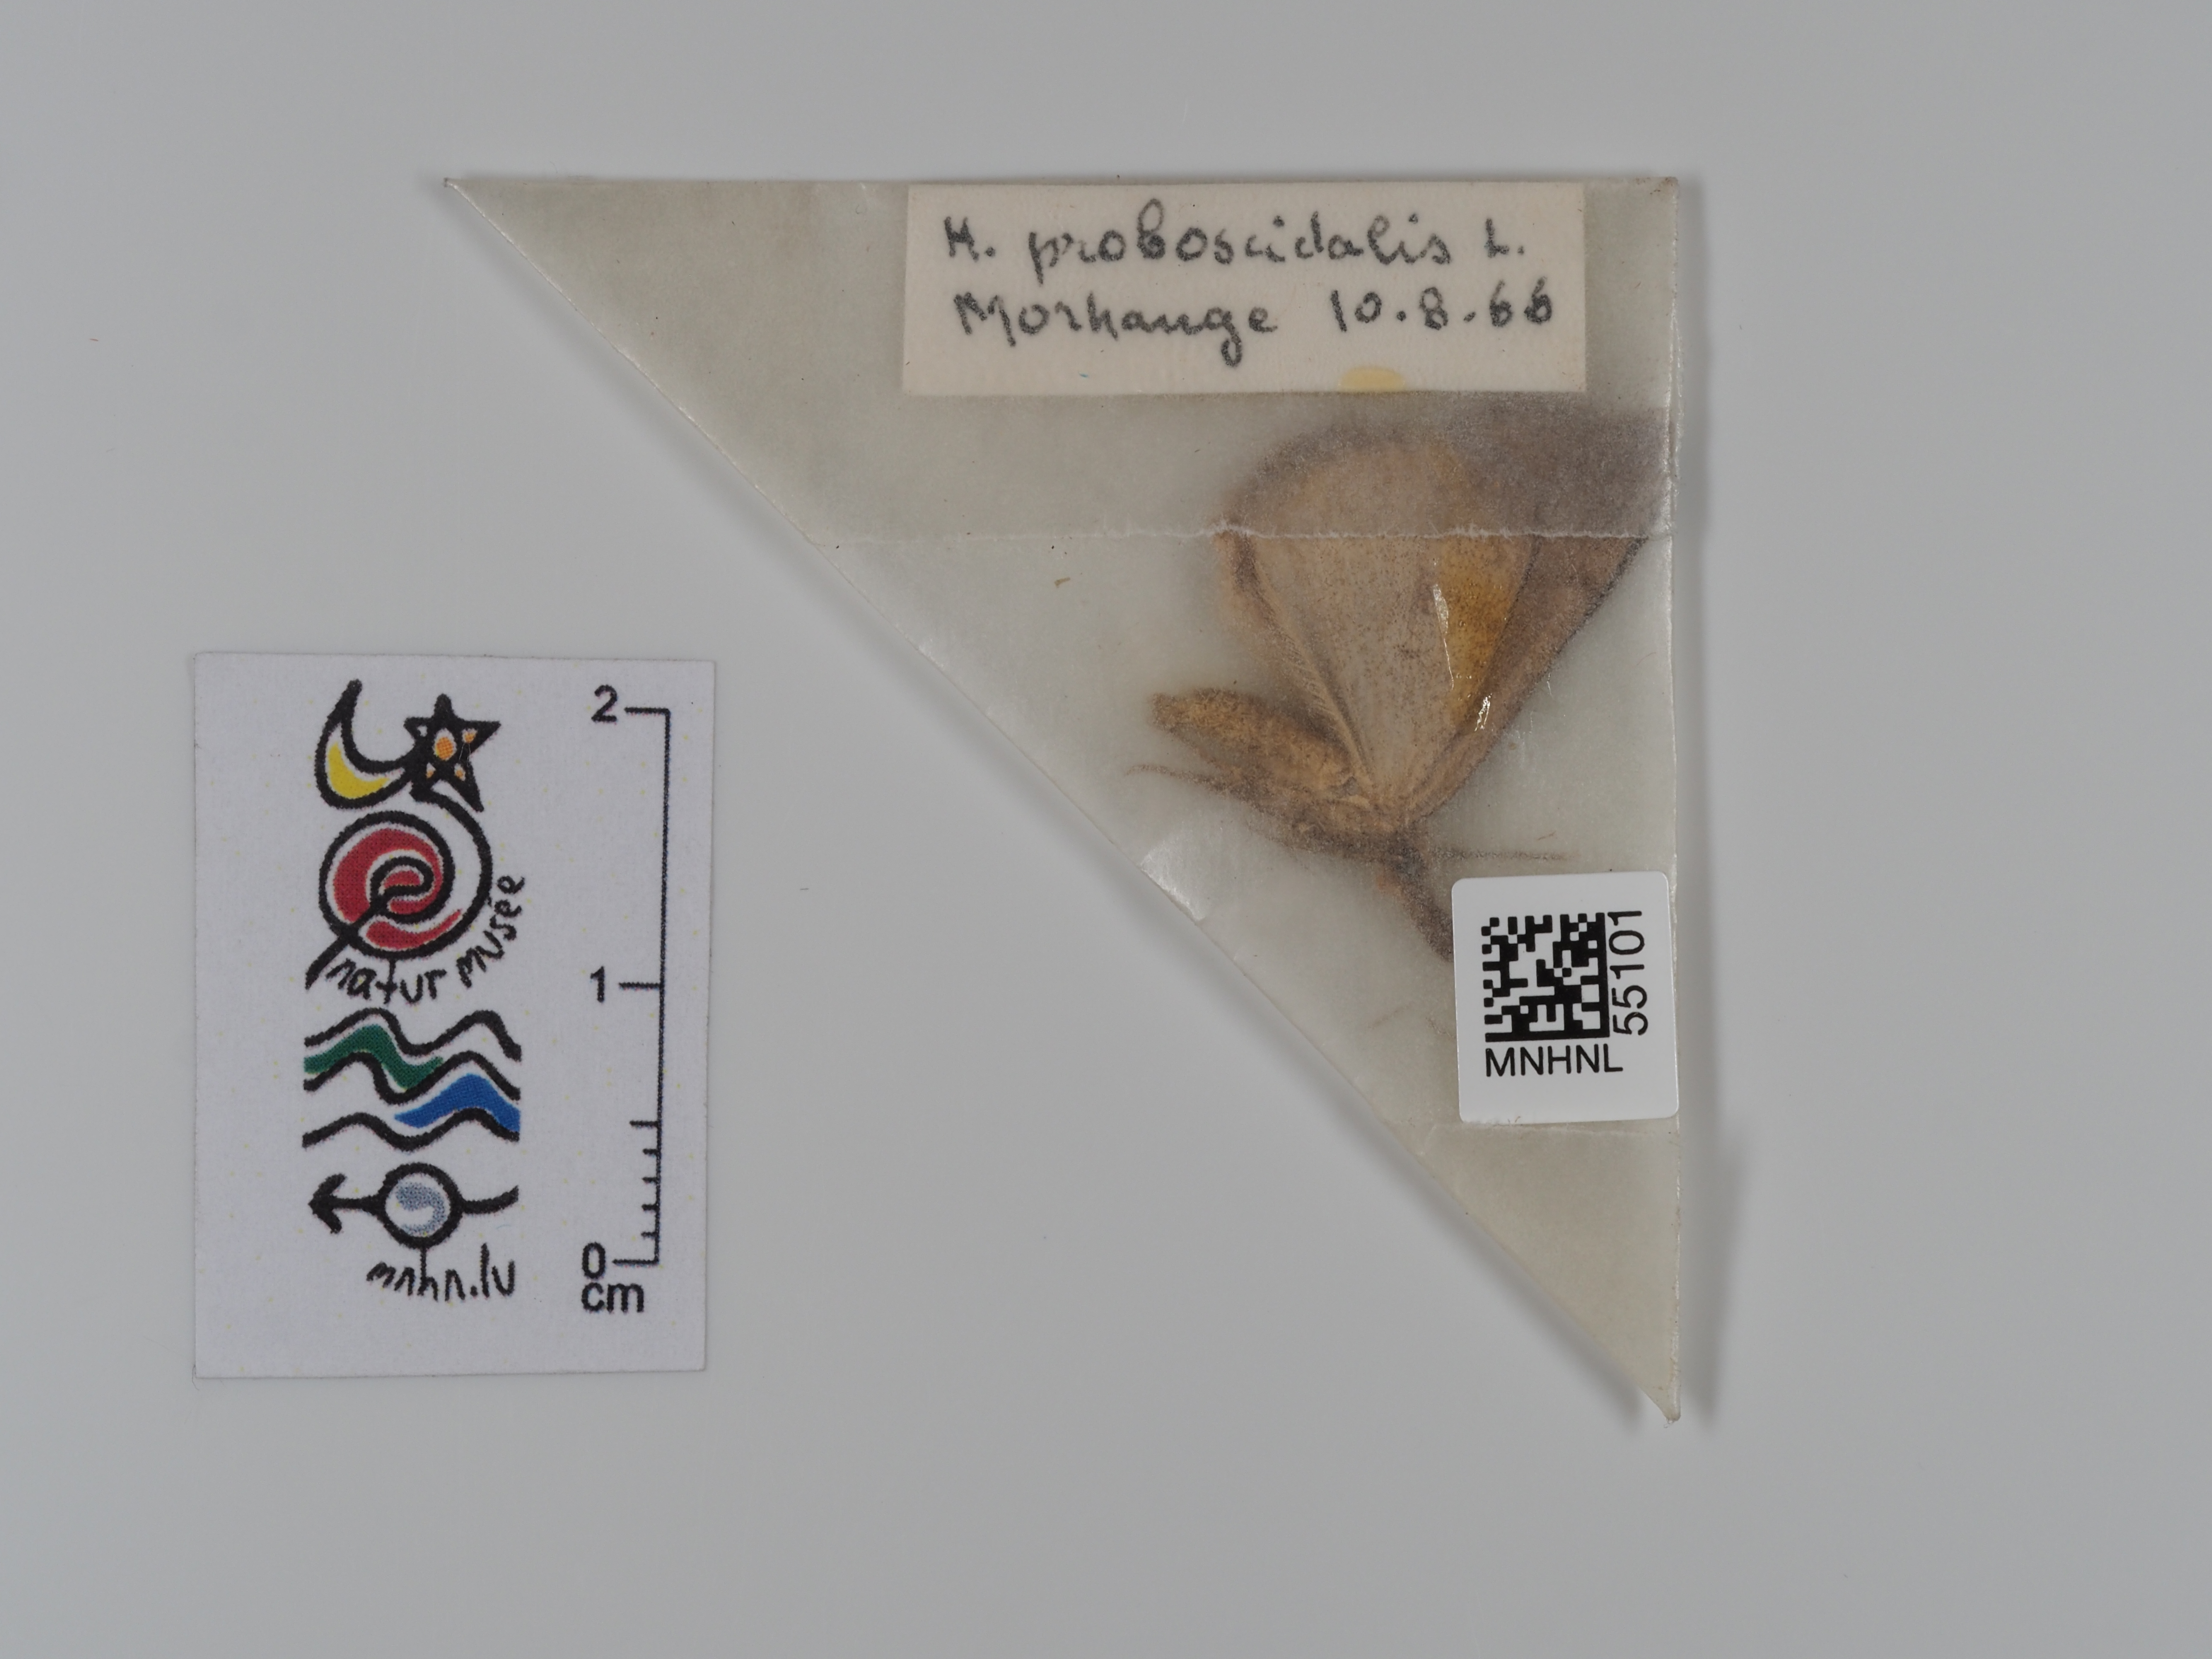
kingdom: Animalia
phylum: Arthropoda
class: Insecta
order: Lepidoptera
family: Erebidae
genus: Hypena
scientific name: Hypena proboscidalis
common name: Snout
